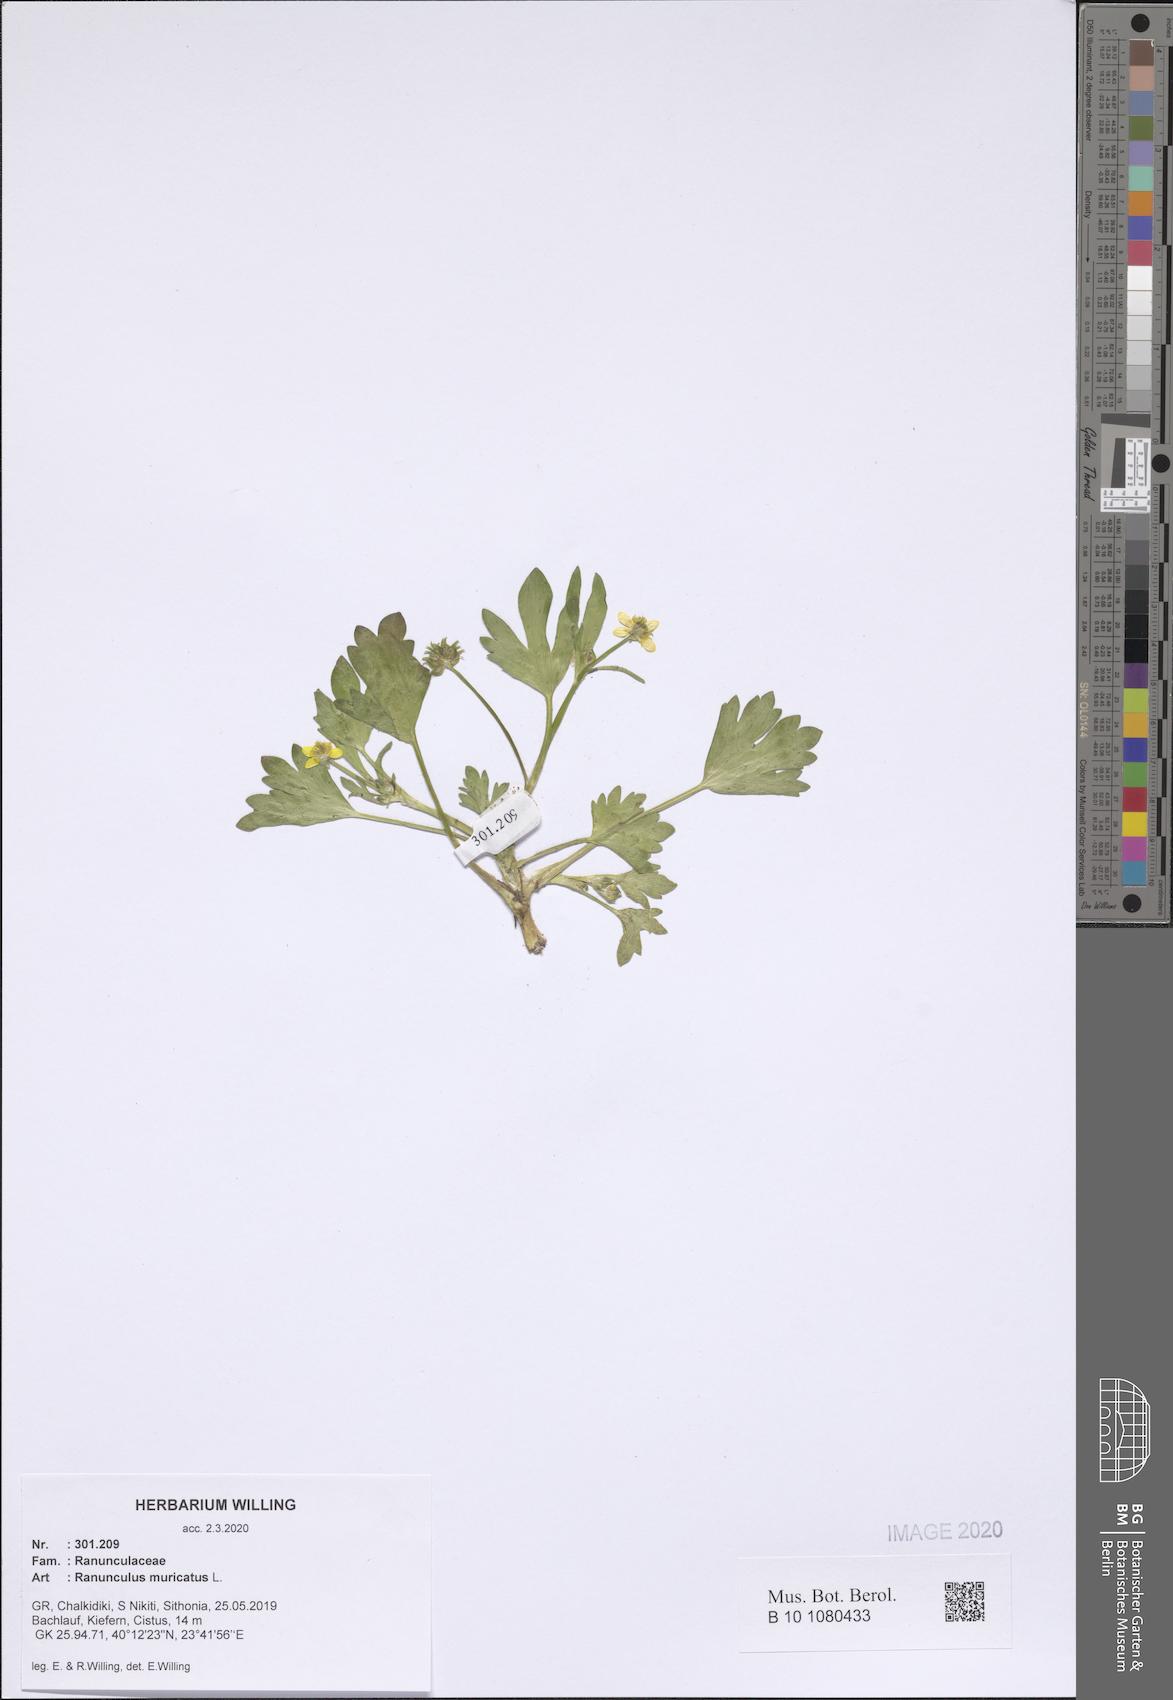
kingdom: Plantae
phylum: Tracheophyta
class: Magnoliopsida
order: Ranunculales
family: Ranunculaceae
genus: Ranunculus
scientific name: Ranunculus muricatus
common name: Rough-fruited buttercup
